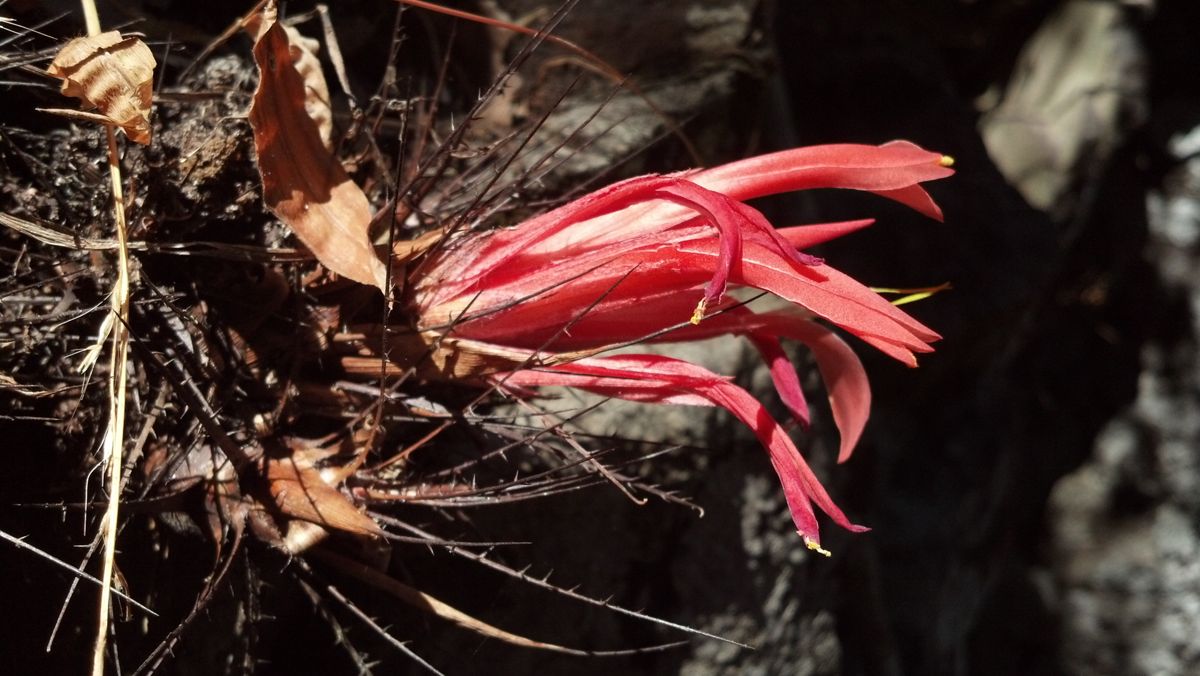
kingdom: Plantae
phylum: Tracheophyta
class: Liliopsida
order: Poales
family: Bromeliaceae
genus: Pitcairnia
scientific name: Pitcairnia heterophylla
